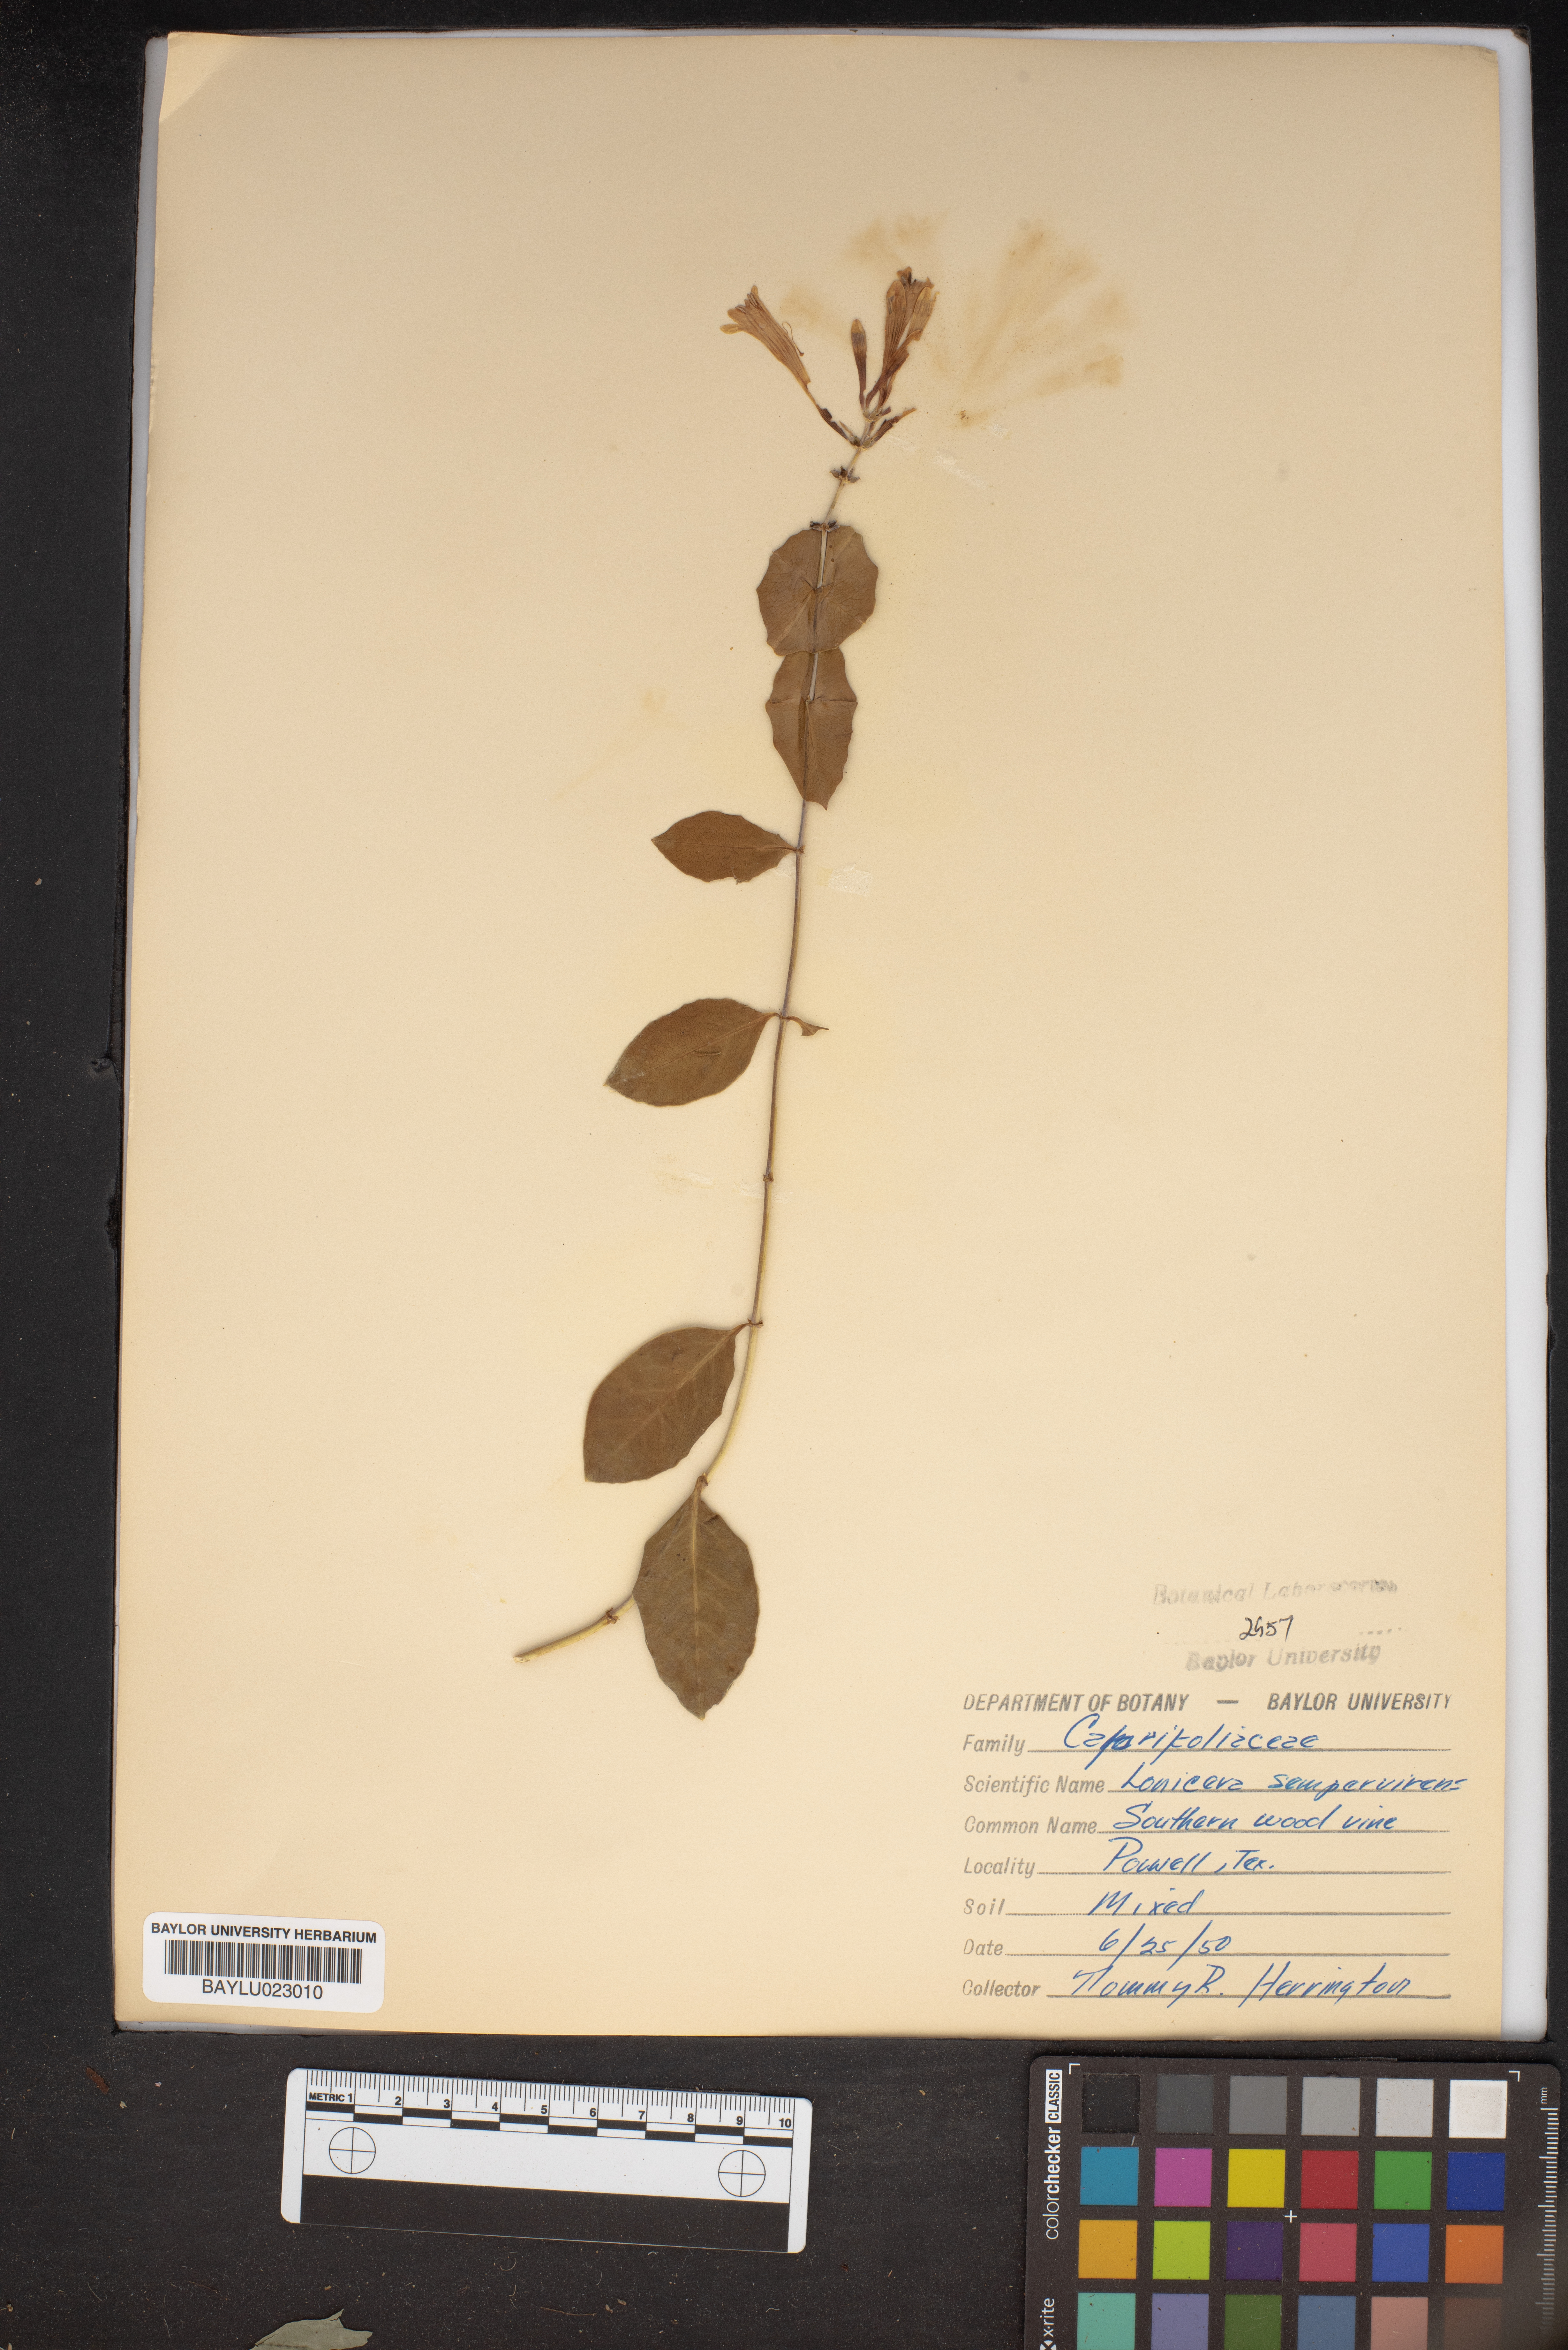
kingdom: Plantae
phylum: Tracheophyta
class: Magnoliopsida
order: Dipsacales
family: Caprifoliaceae
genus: Lonicera
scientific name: Lonicera sempervirens
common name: Coral honeysuckle
